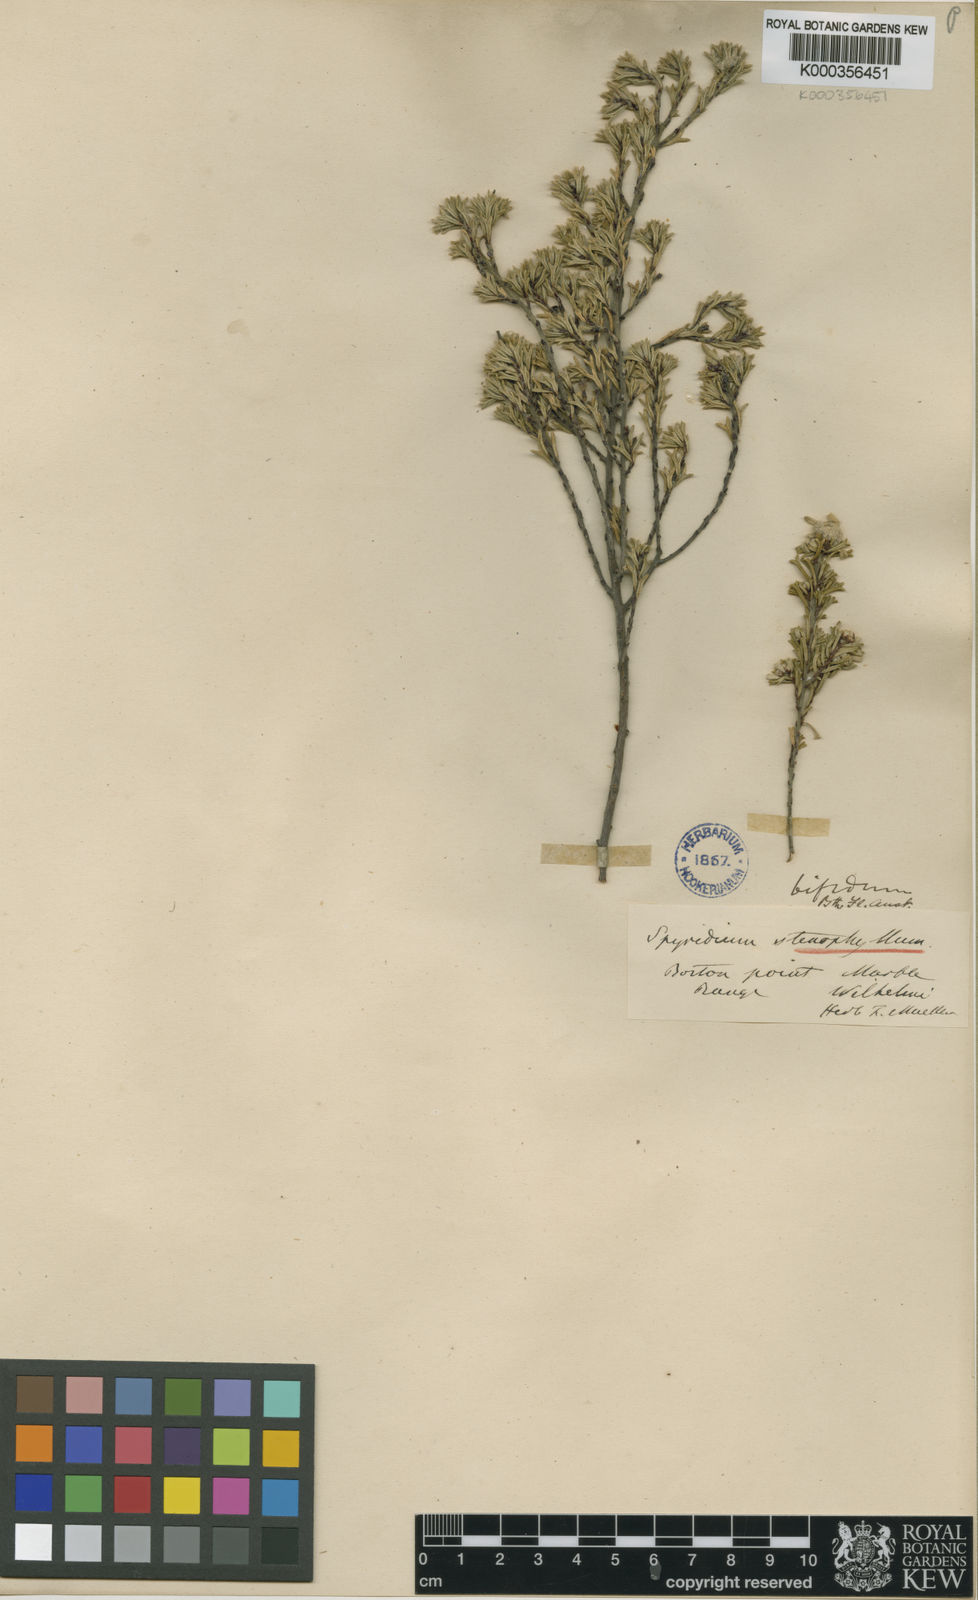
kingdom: Plantae
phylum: Tracheophyta
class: Magnoliopsida
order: Rosales
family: Rhamnaceae
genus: Spyridium
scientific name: Spyridium bifidum
